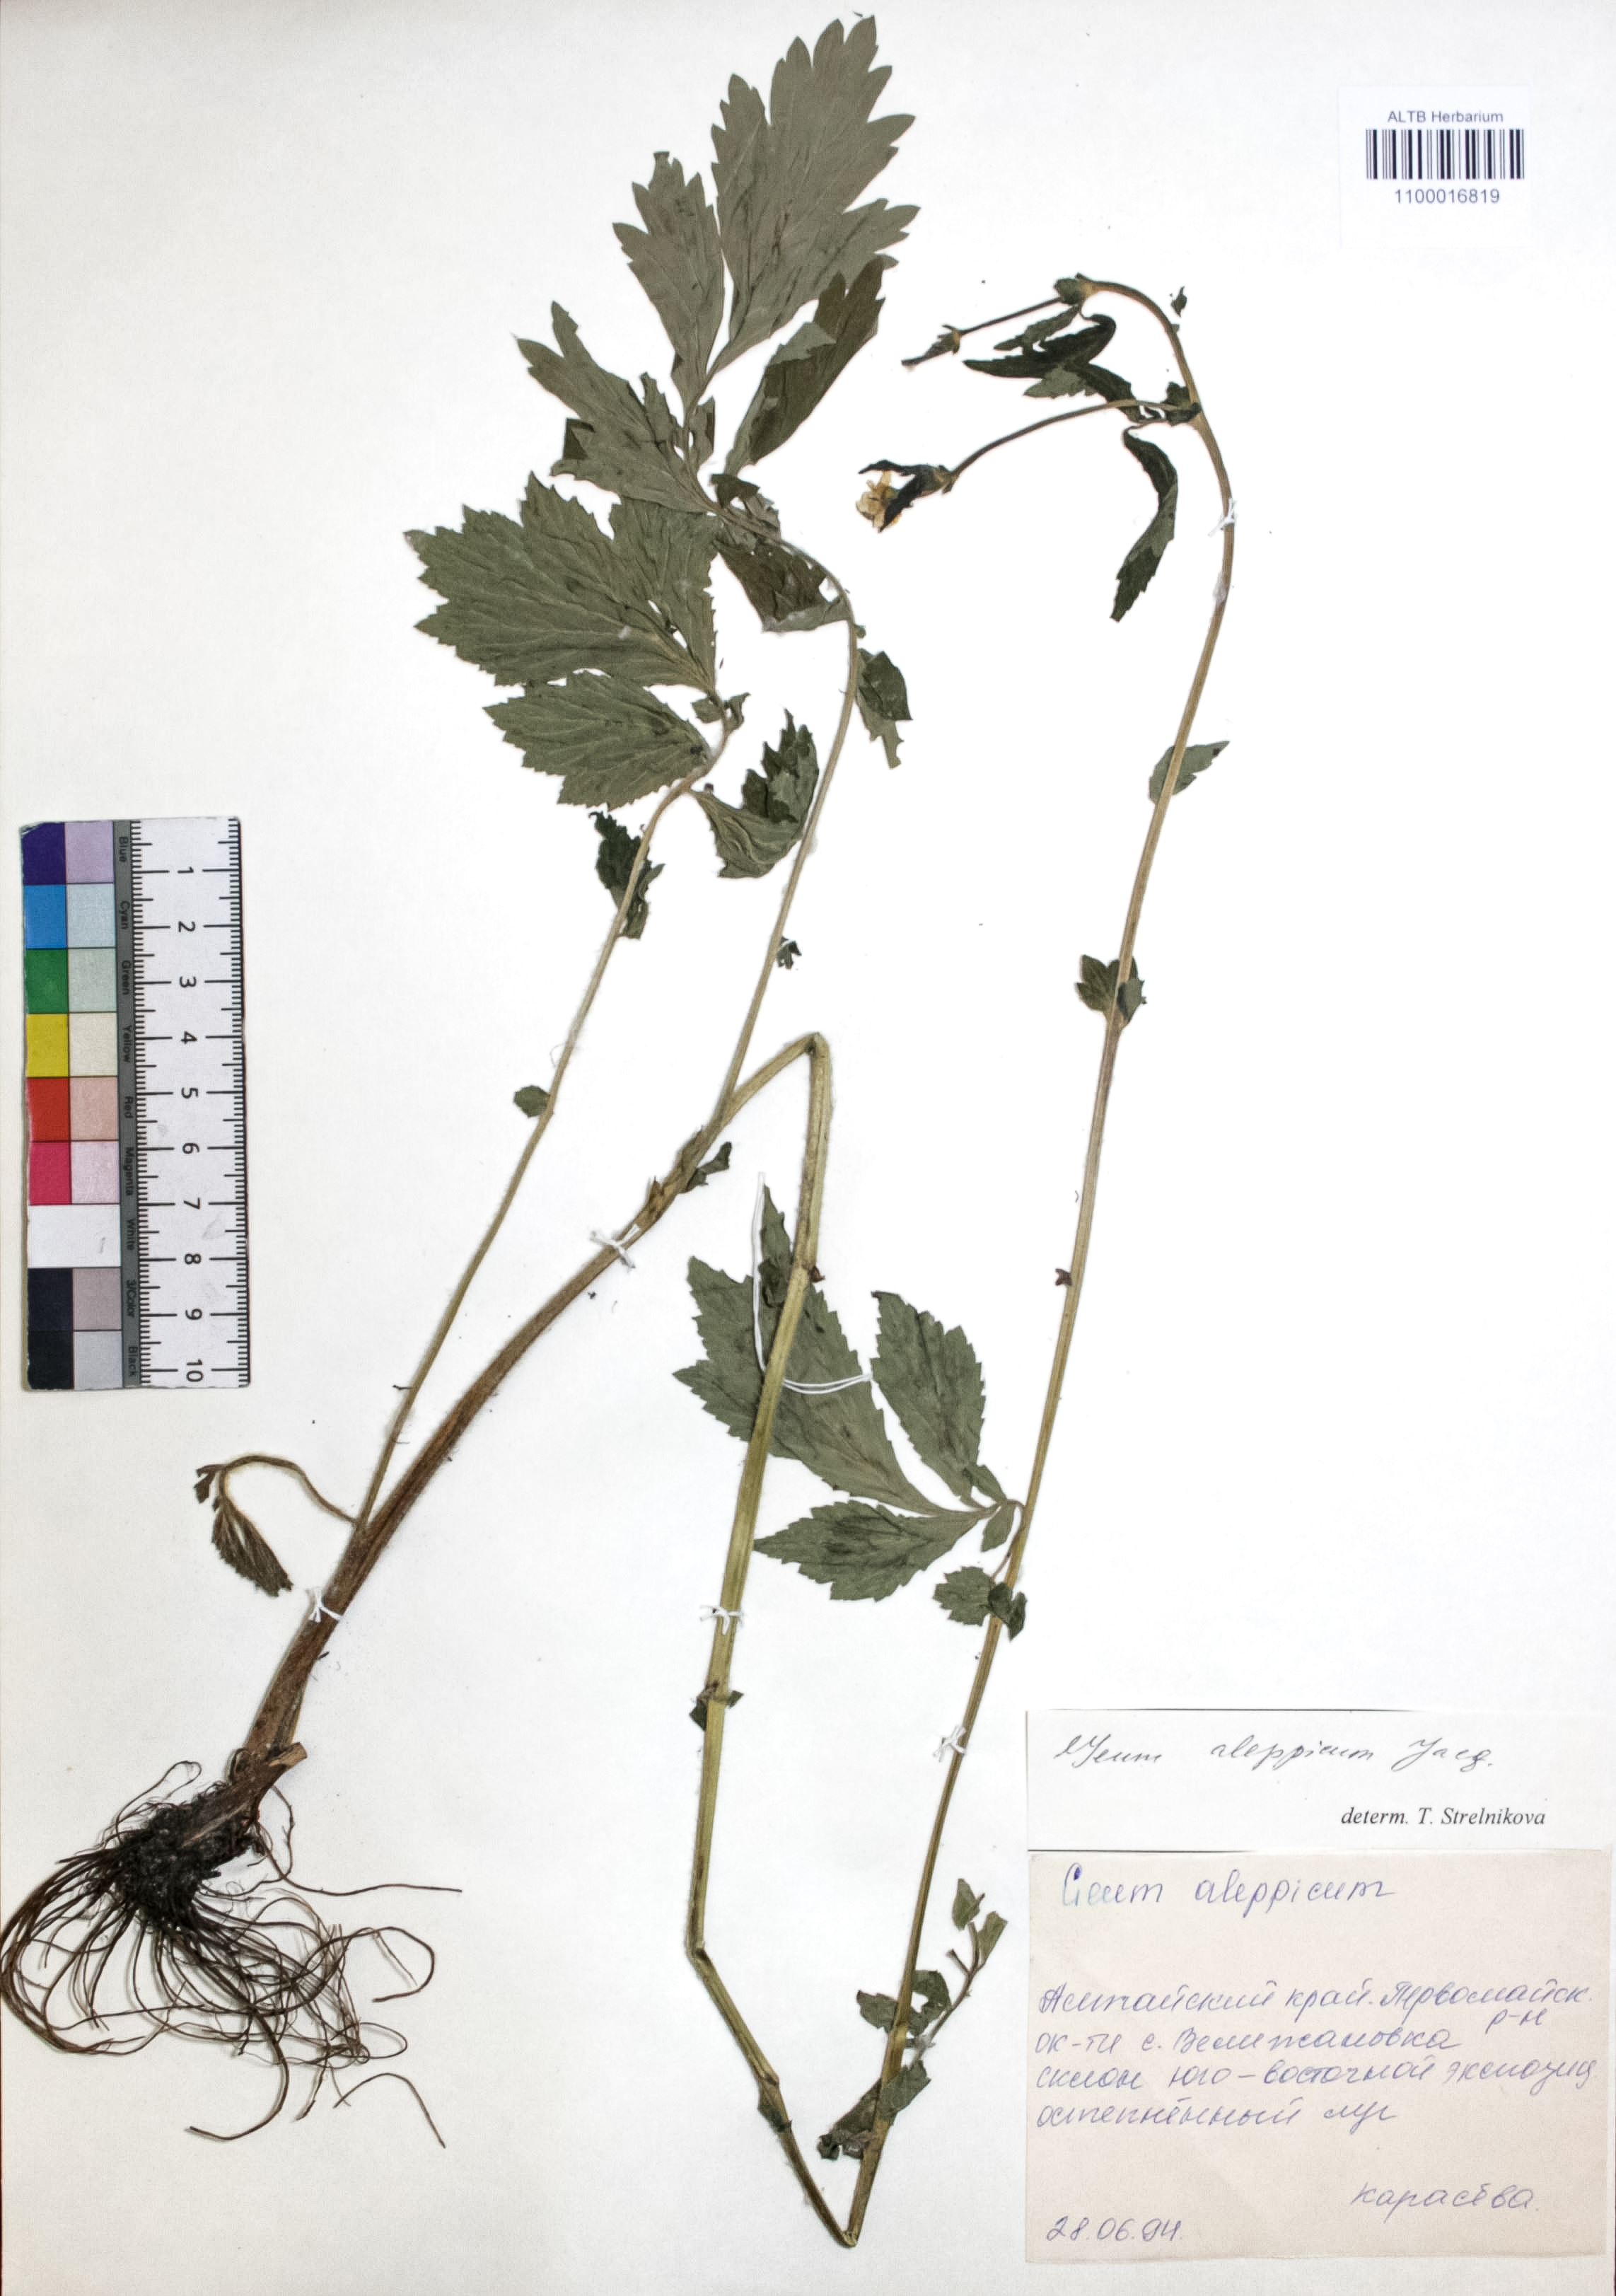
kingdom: Plantae
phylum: Tracheophyta
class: Magnoliopsida
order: Rosales
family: Rosaceae
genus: Geum
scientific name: Geum aleppicum
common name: Yellow avens
